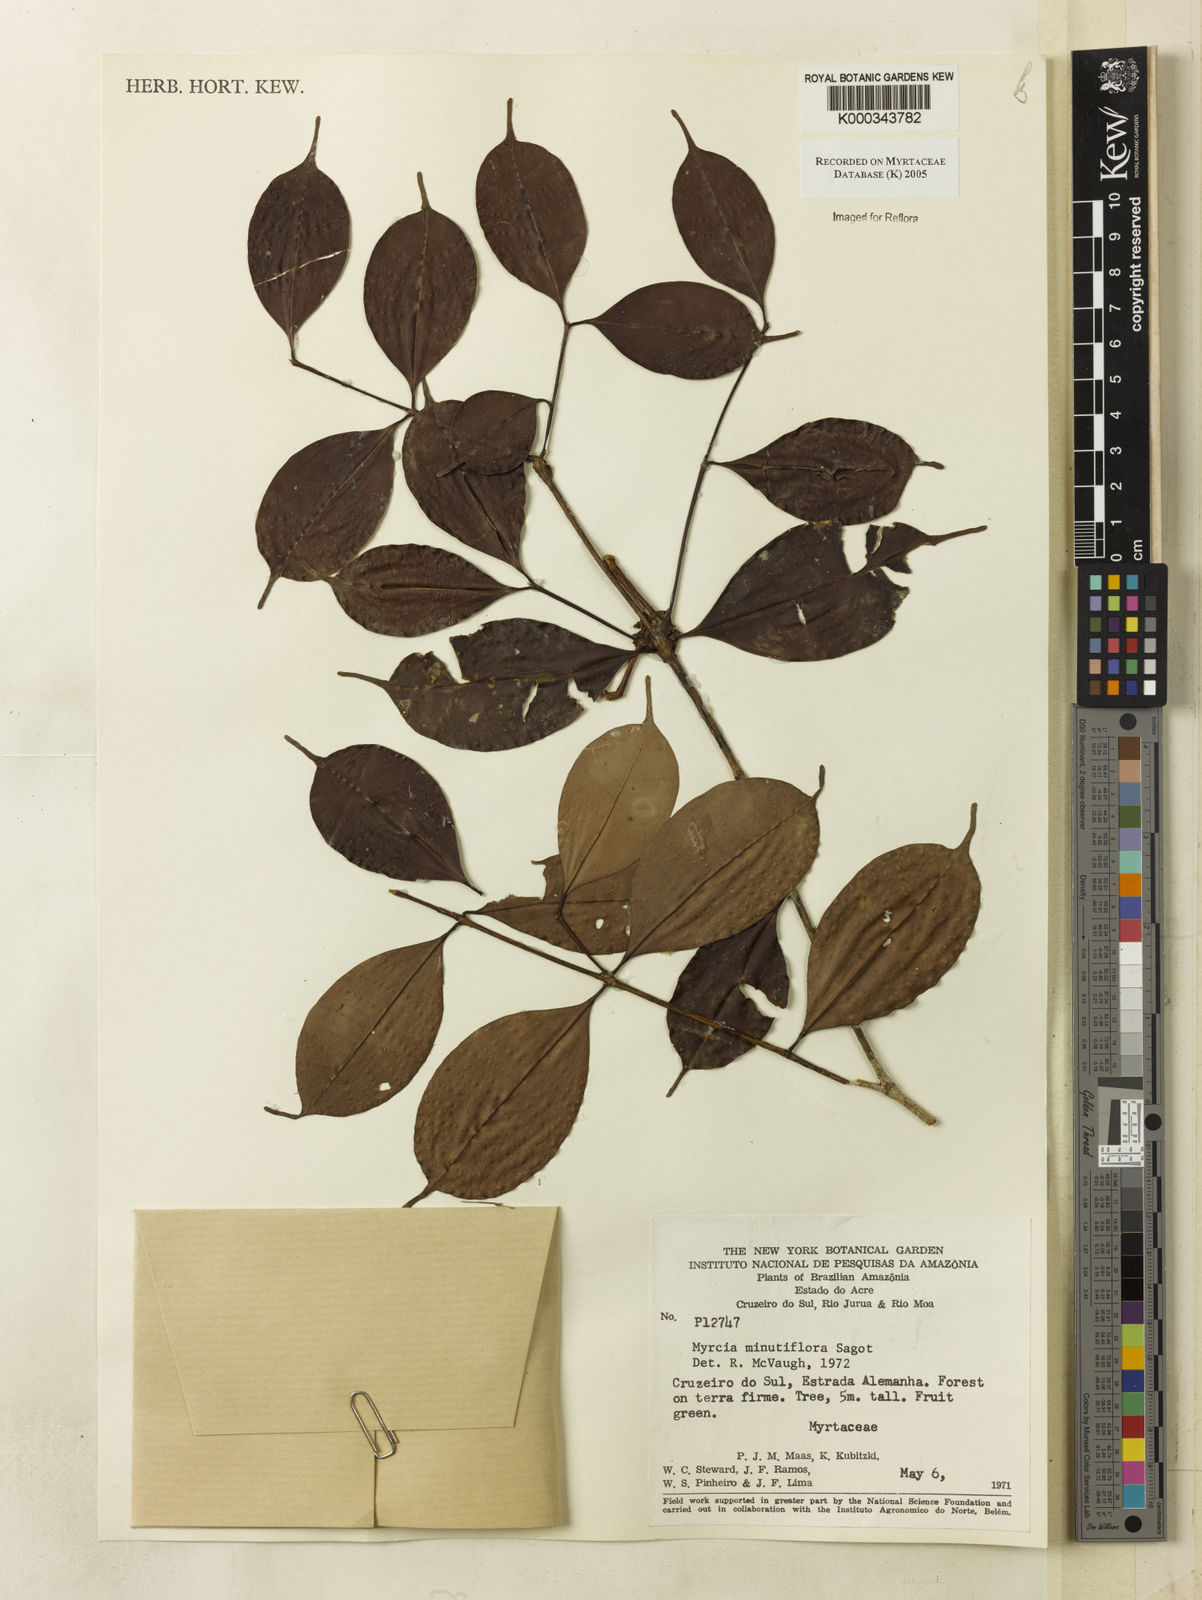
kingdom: Plantae
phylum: Tracheophyta
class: Magnoliopsida
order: Myrtales
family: Myrtaceae
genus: Myrcia
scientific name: Myrcia minutiflora
